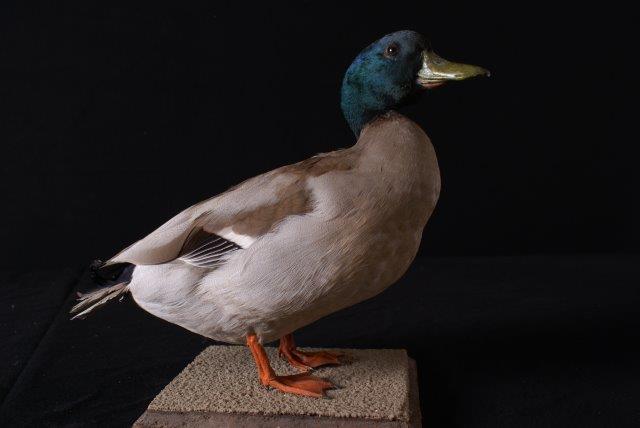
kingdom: Animalia
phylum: Chordata
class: Aves
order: Anseriformes
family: Anatidae
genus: Anas
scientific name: Anas platyrhynchos
